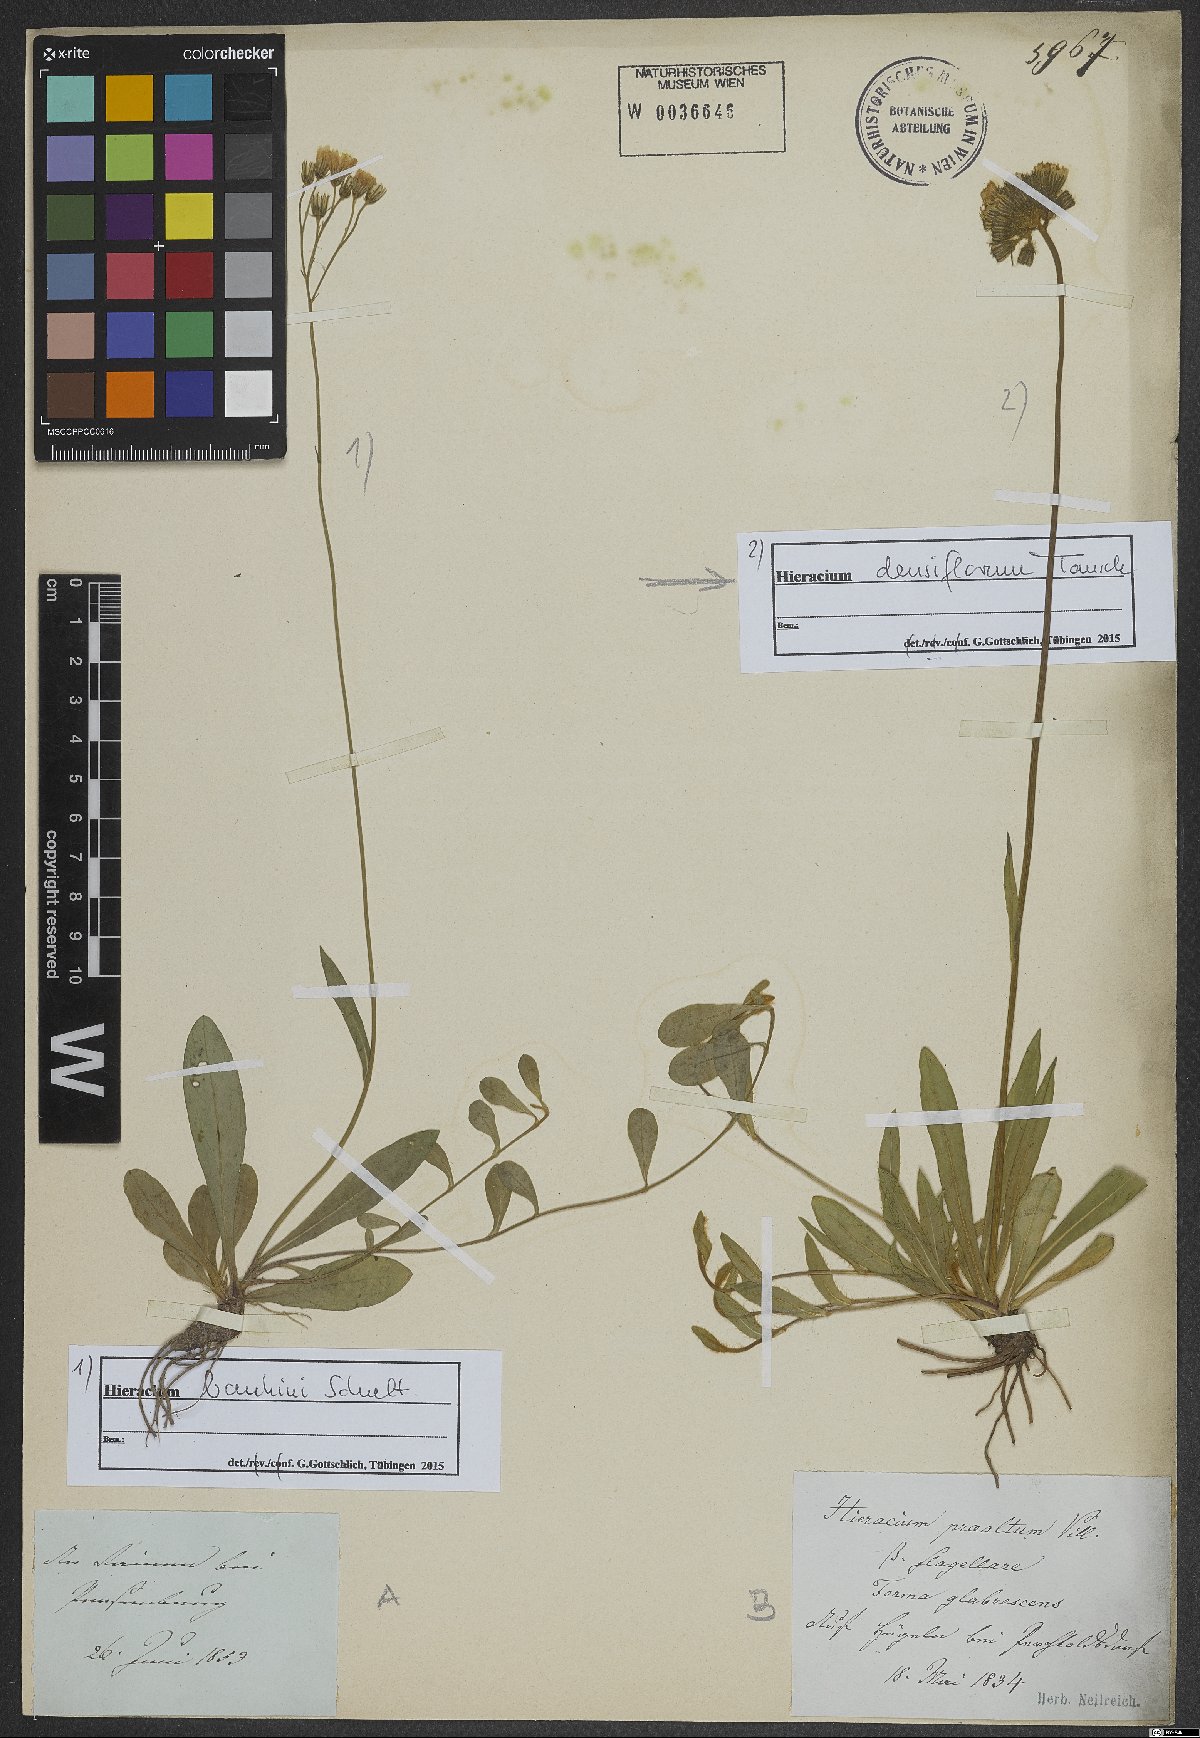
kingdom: Plantae
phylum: Tracheophyta
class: Magnoliopsida
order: Asterales
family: Asteraceae
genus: Pilosella
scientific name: Pilosella densiflora
